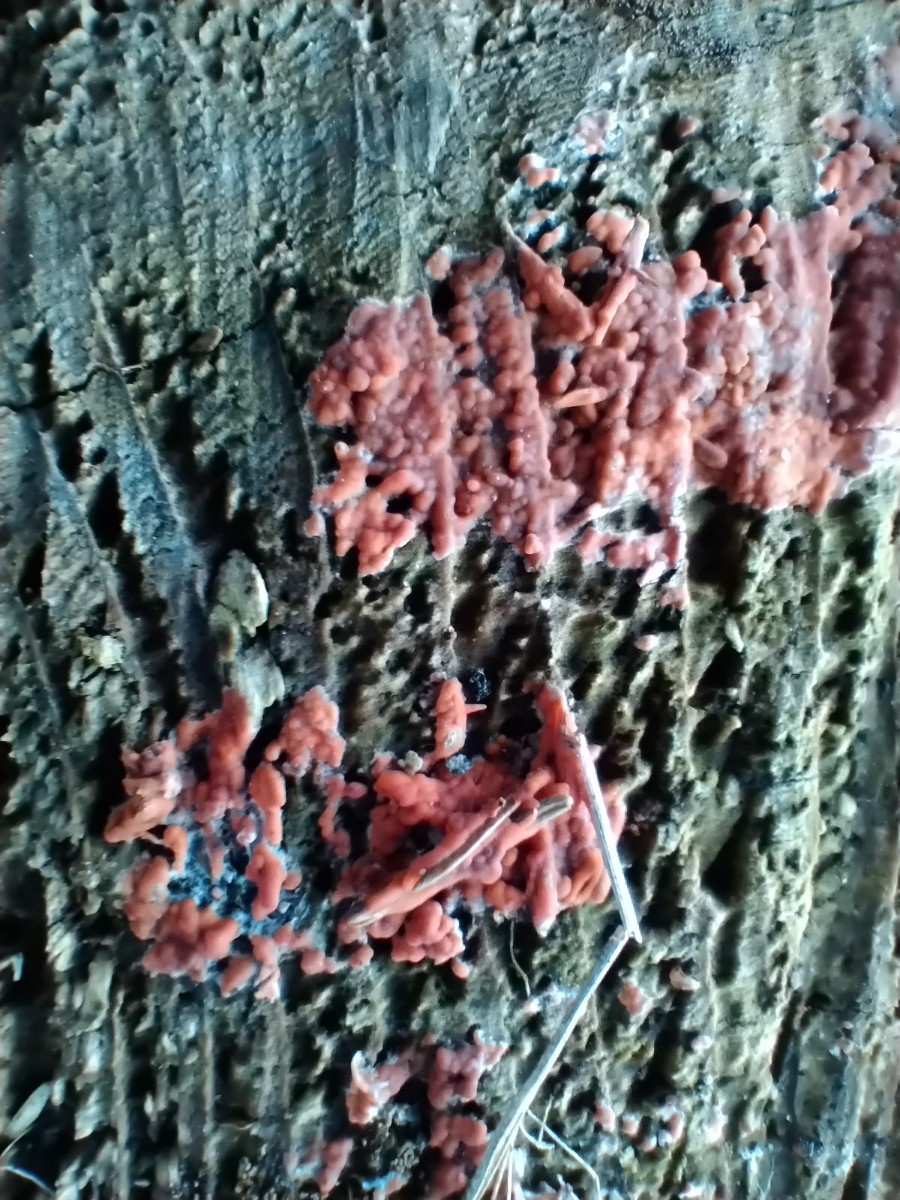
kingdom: Fungi
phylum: Basidiomycota
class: Agaricomycetes
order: Polyporales
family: Meruliaceae
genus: Phlebia
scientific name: Phlebia
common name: åresvamp
